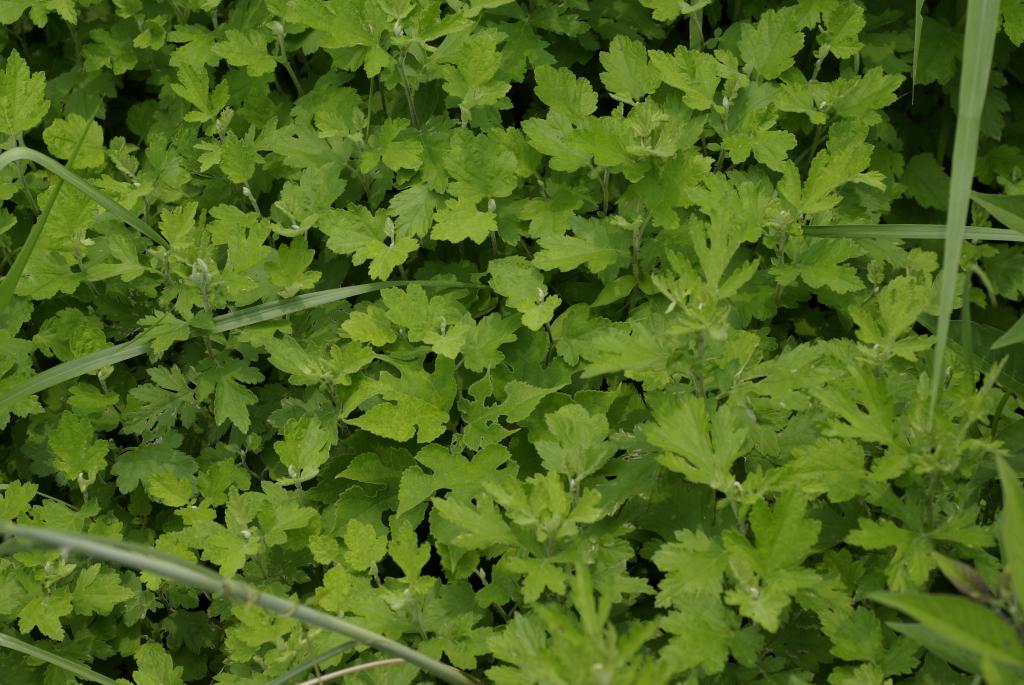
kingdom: Plantae
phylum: Tracheophyta
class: Magnoliopsida
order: Asterales
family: Asteraceae
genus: Artemisia
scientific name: Artemisia indica
